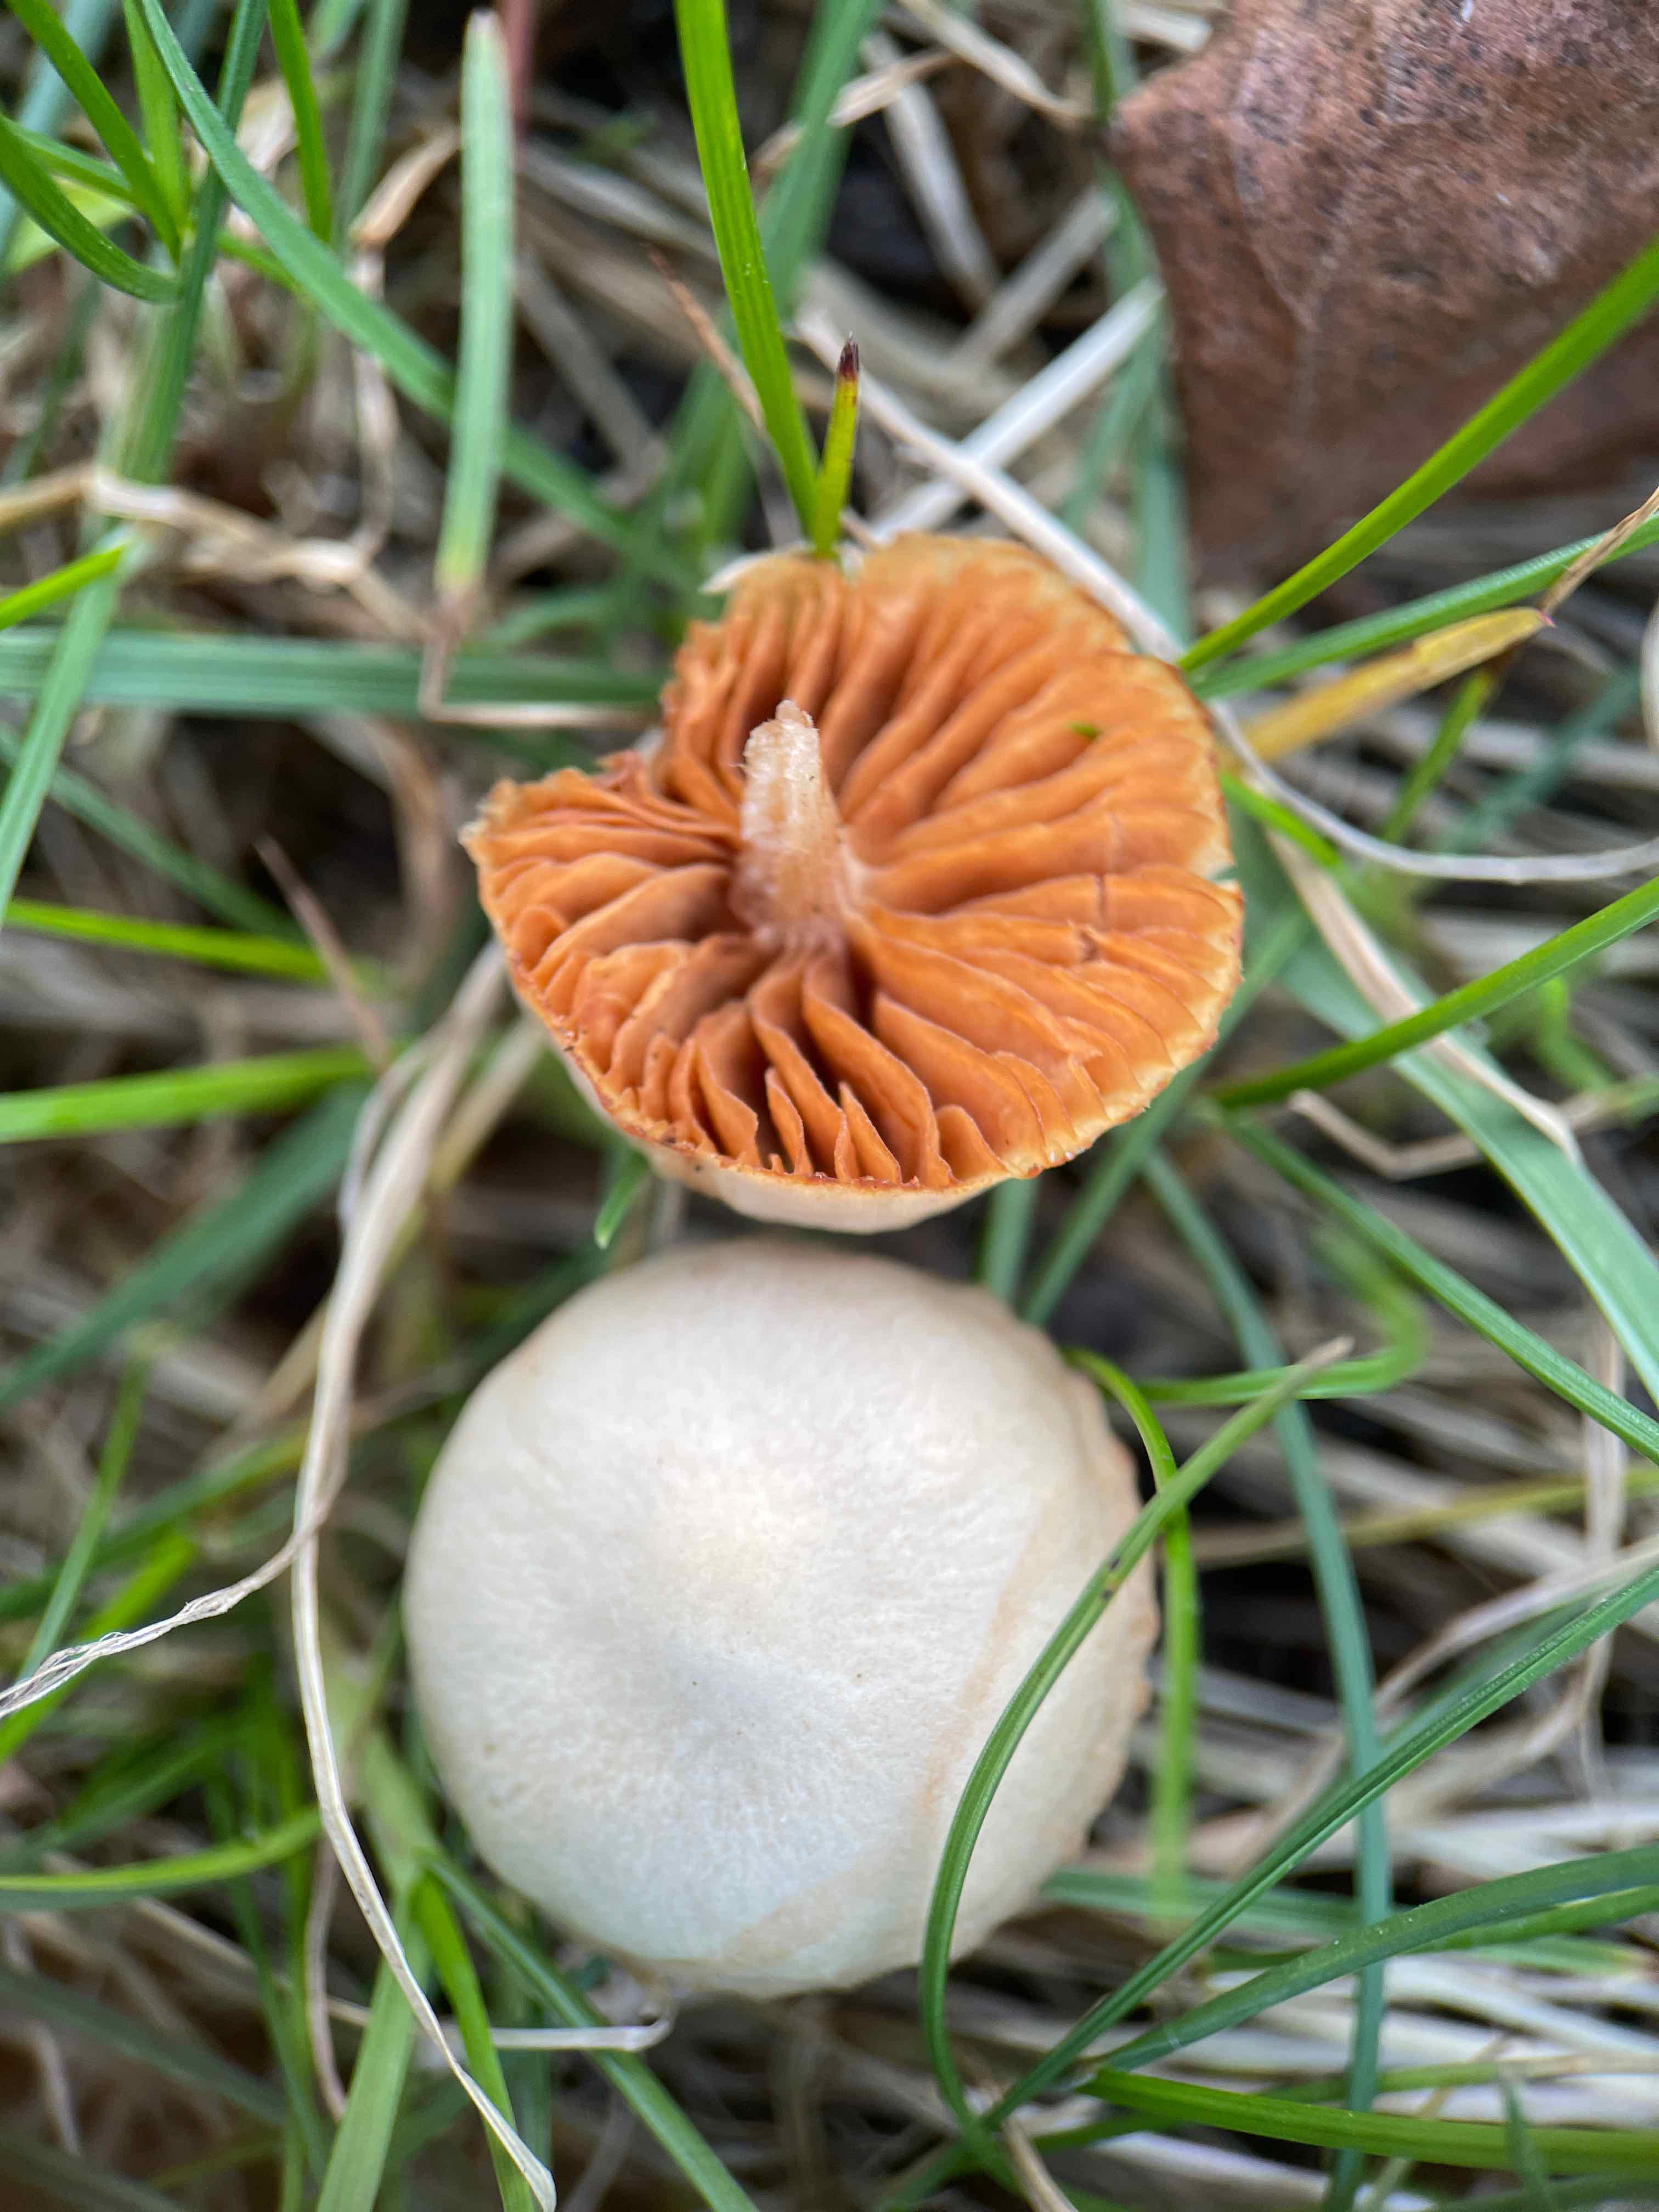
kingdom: Fungi
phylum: Basidiomycota
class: Agaricomycetes
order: Agaricales
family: Tubariaceae
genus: Tubaria
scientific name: Tubaria furfuracea
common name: kliddet fnughat
